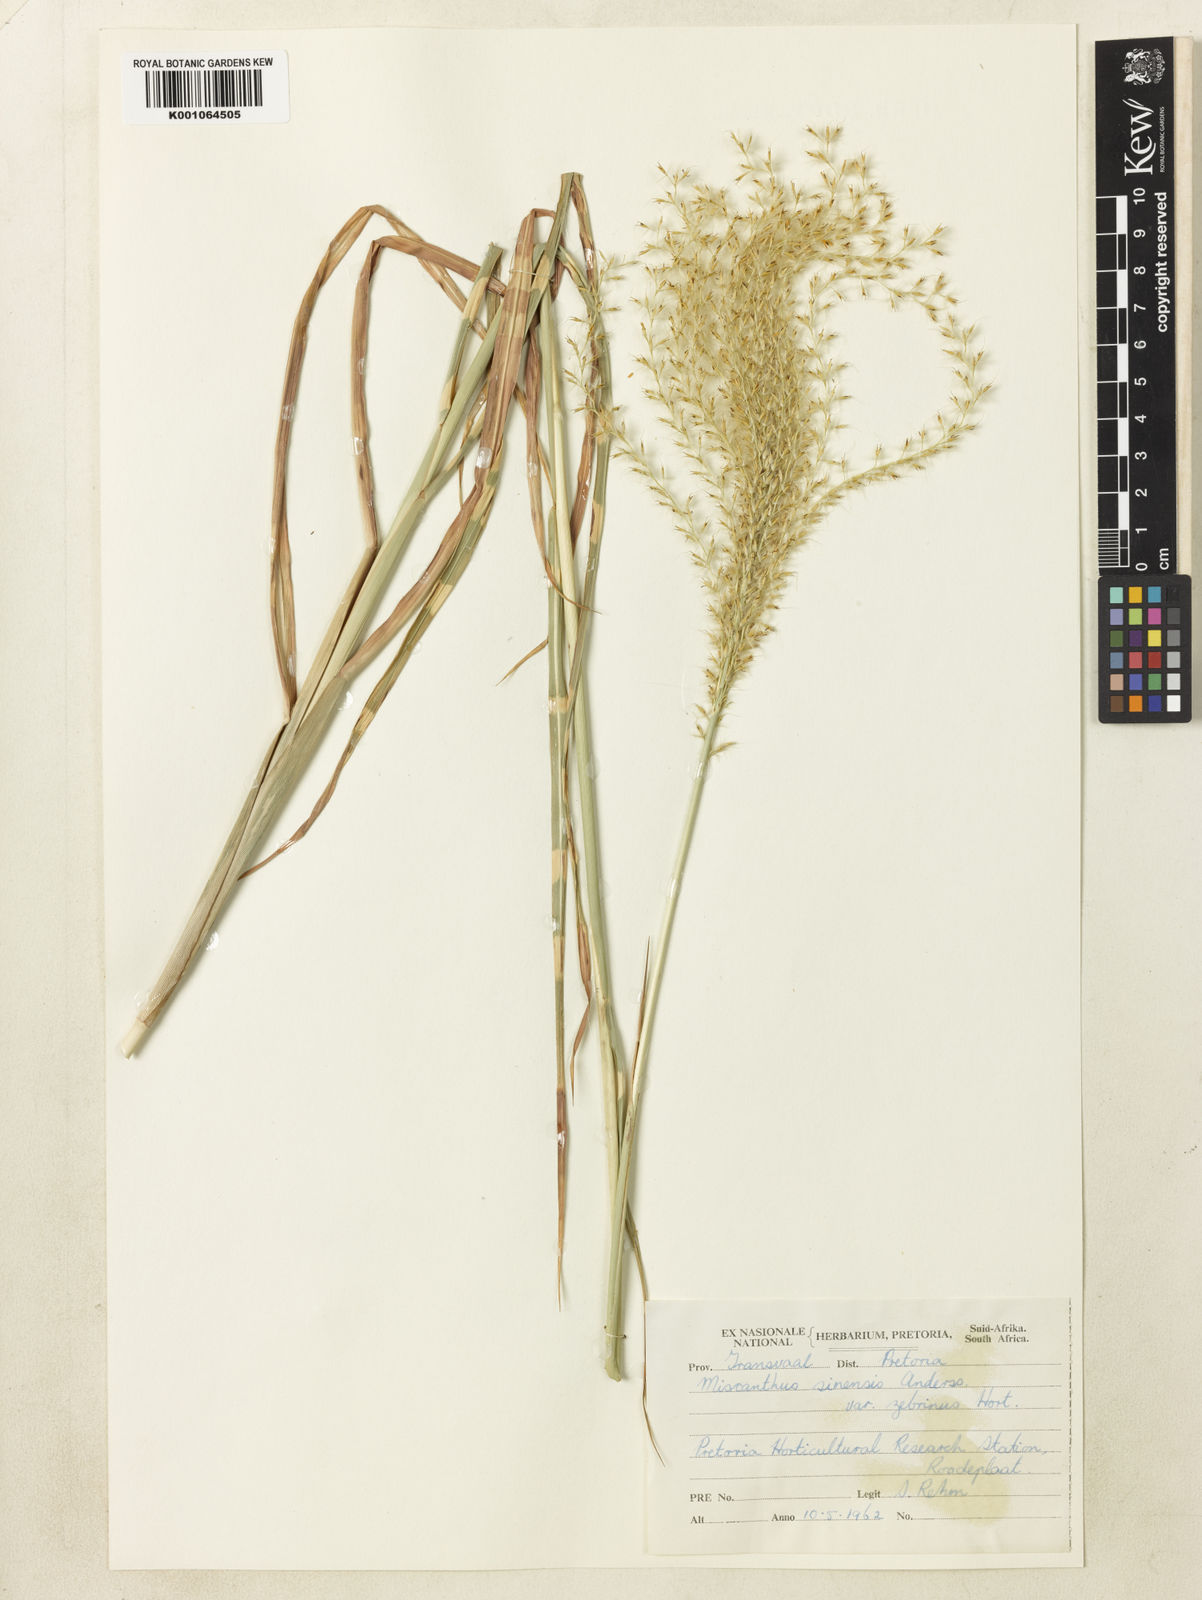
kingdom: Plantae
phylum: Tracheophyta
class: Liliopsida
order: Poales
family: Poaceae
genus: Miscanthus
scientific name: Miscanthus sinensis
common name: Chinese silvergrass
